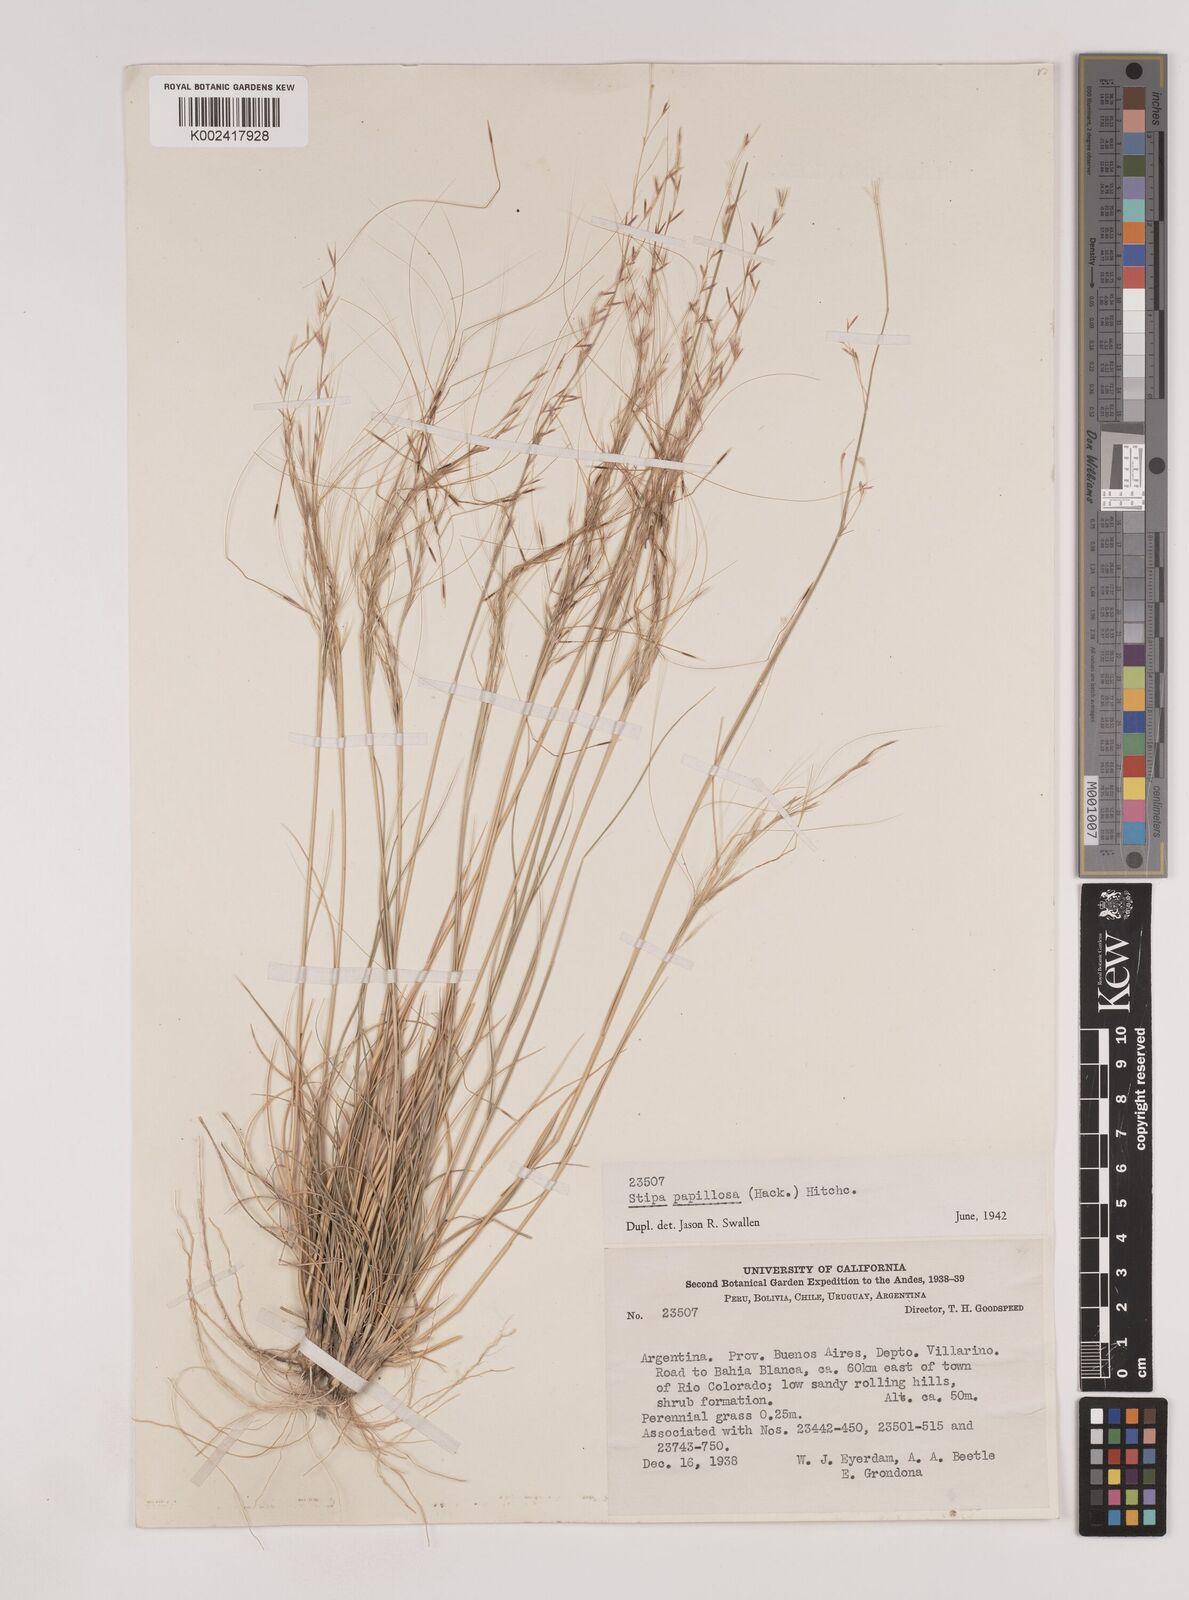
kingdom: Plantae
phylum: Tracheophyta
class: Liliopsida
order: Poales
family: Poaceae
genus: Nassella
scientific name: Nassella
